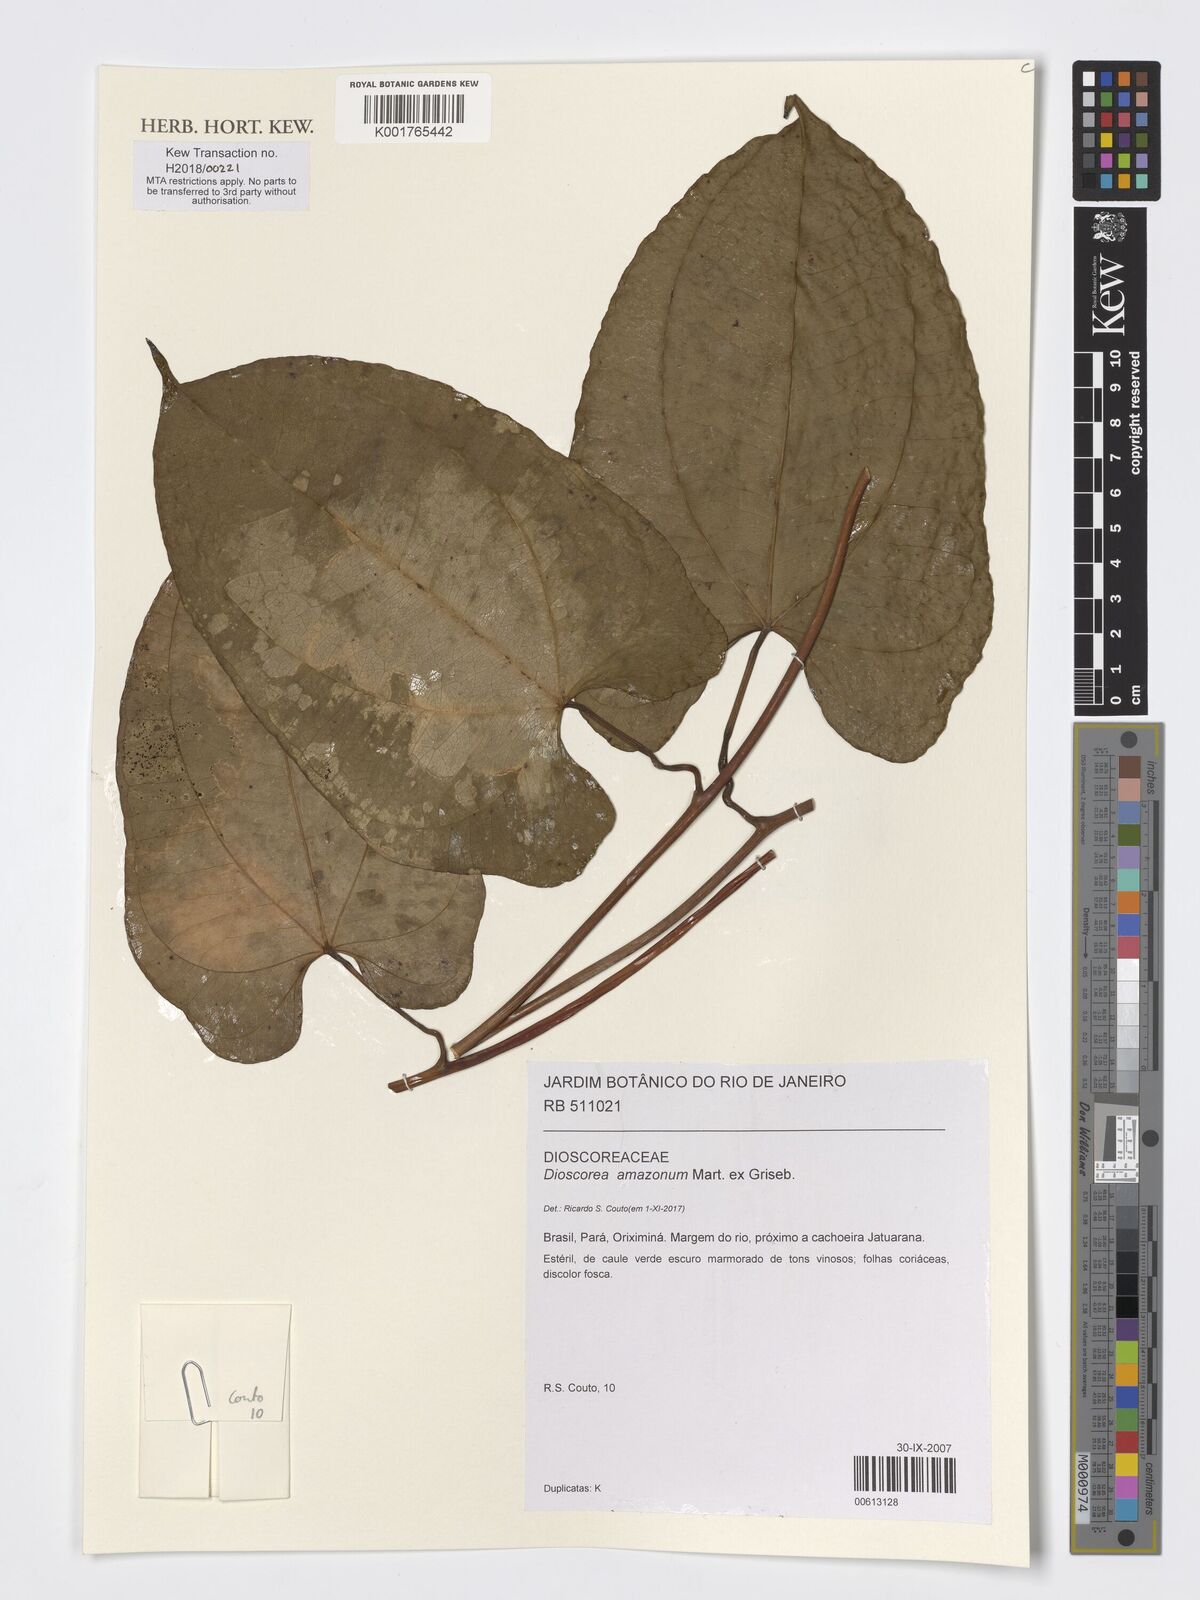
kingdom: Plantae
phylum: Tracheophyta
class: Liliopsida
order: Dioscoreales
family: Dioscoreaceae
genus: Dioscorea
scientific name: Dioscorea amazonum
